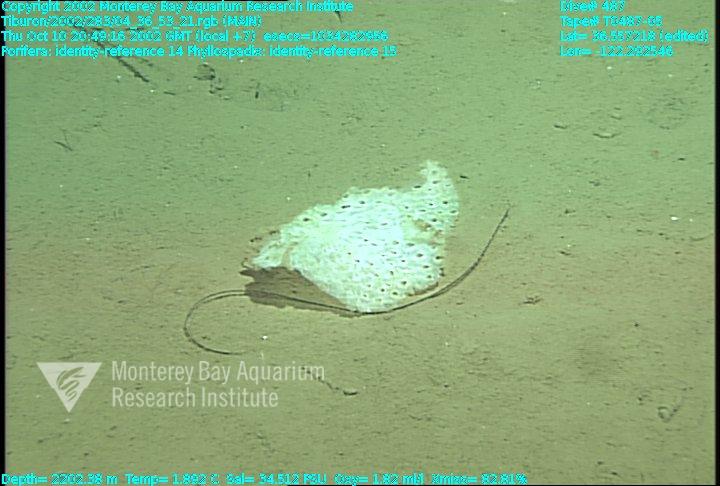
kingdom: Animalia
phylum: Porifera
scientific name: Porifera
